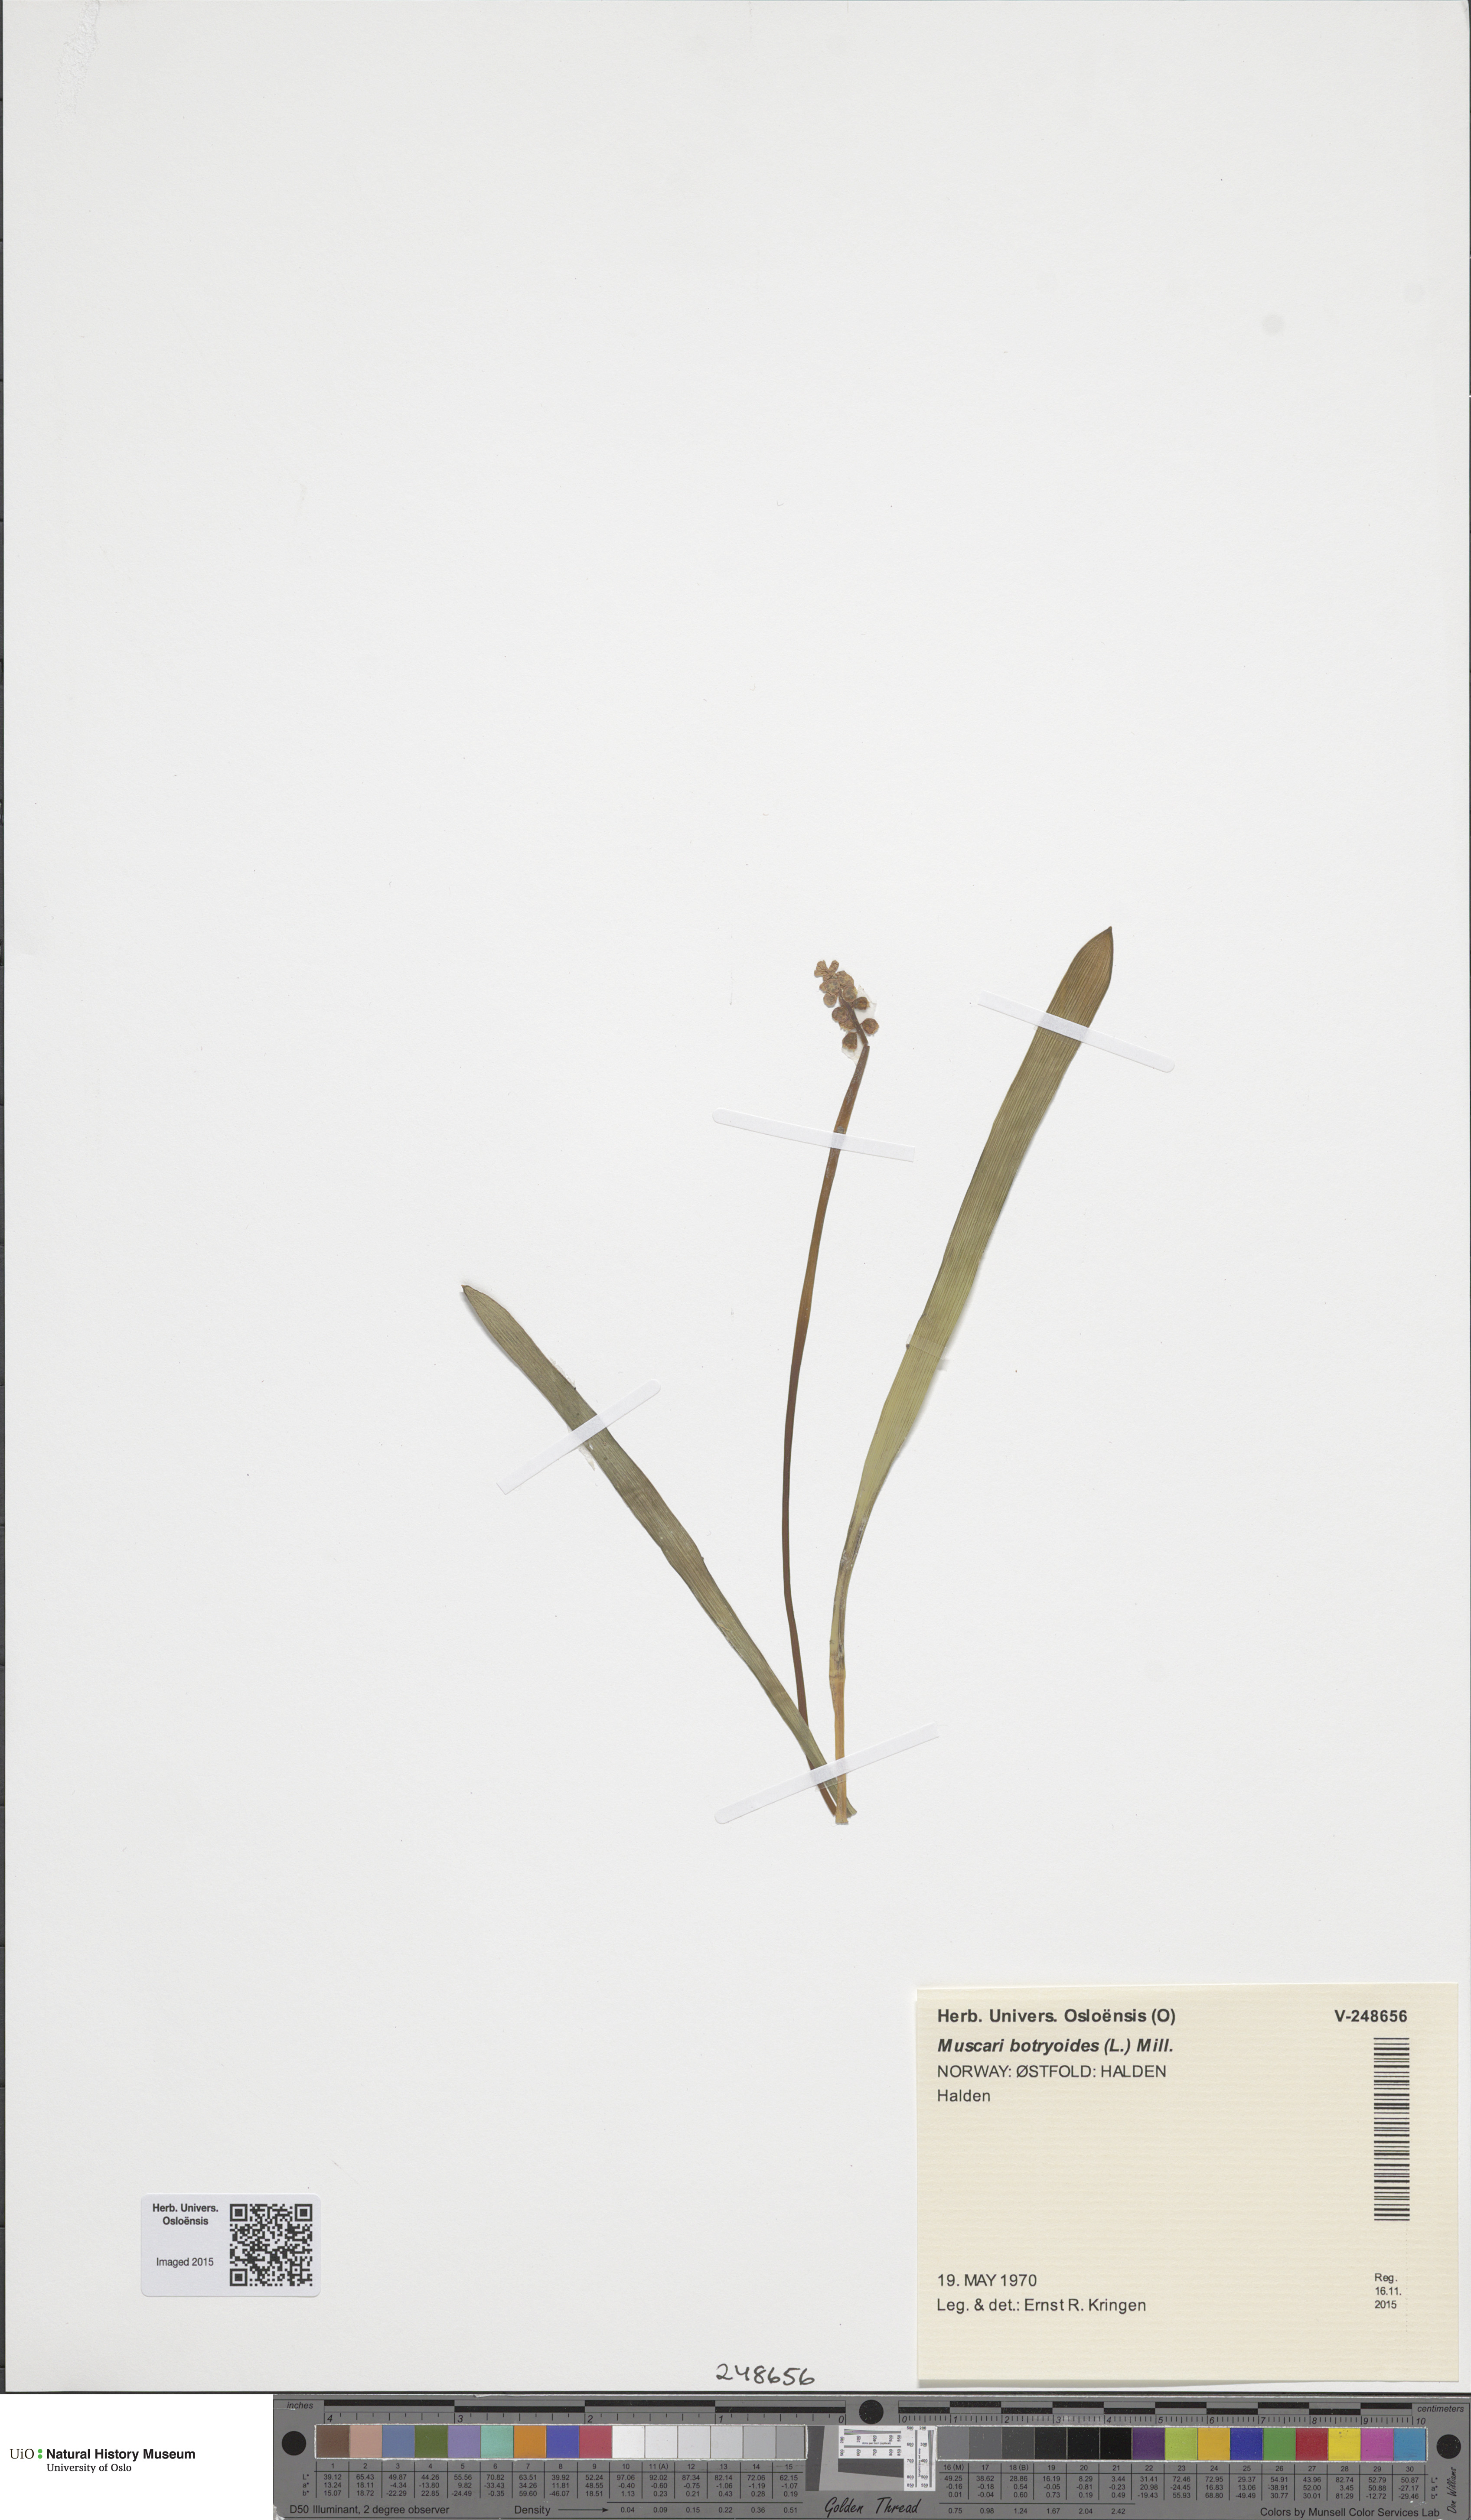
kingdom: Plantae
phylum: Tracheophyta
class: Liliopsida
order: Asparagales
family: Asparagaceae
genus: Muscari
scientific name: Muscari armeniacum
